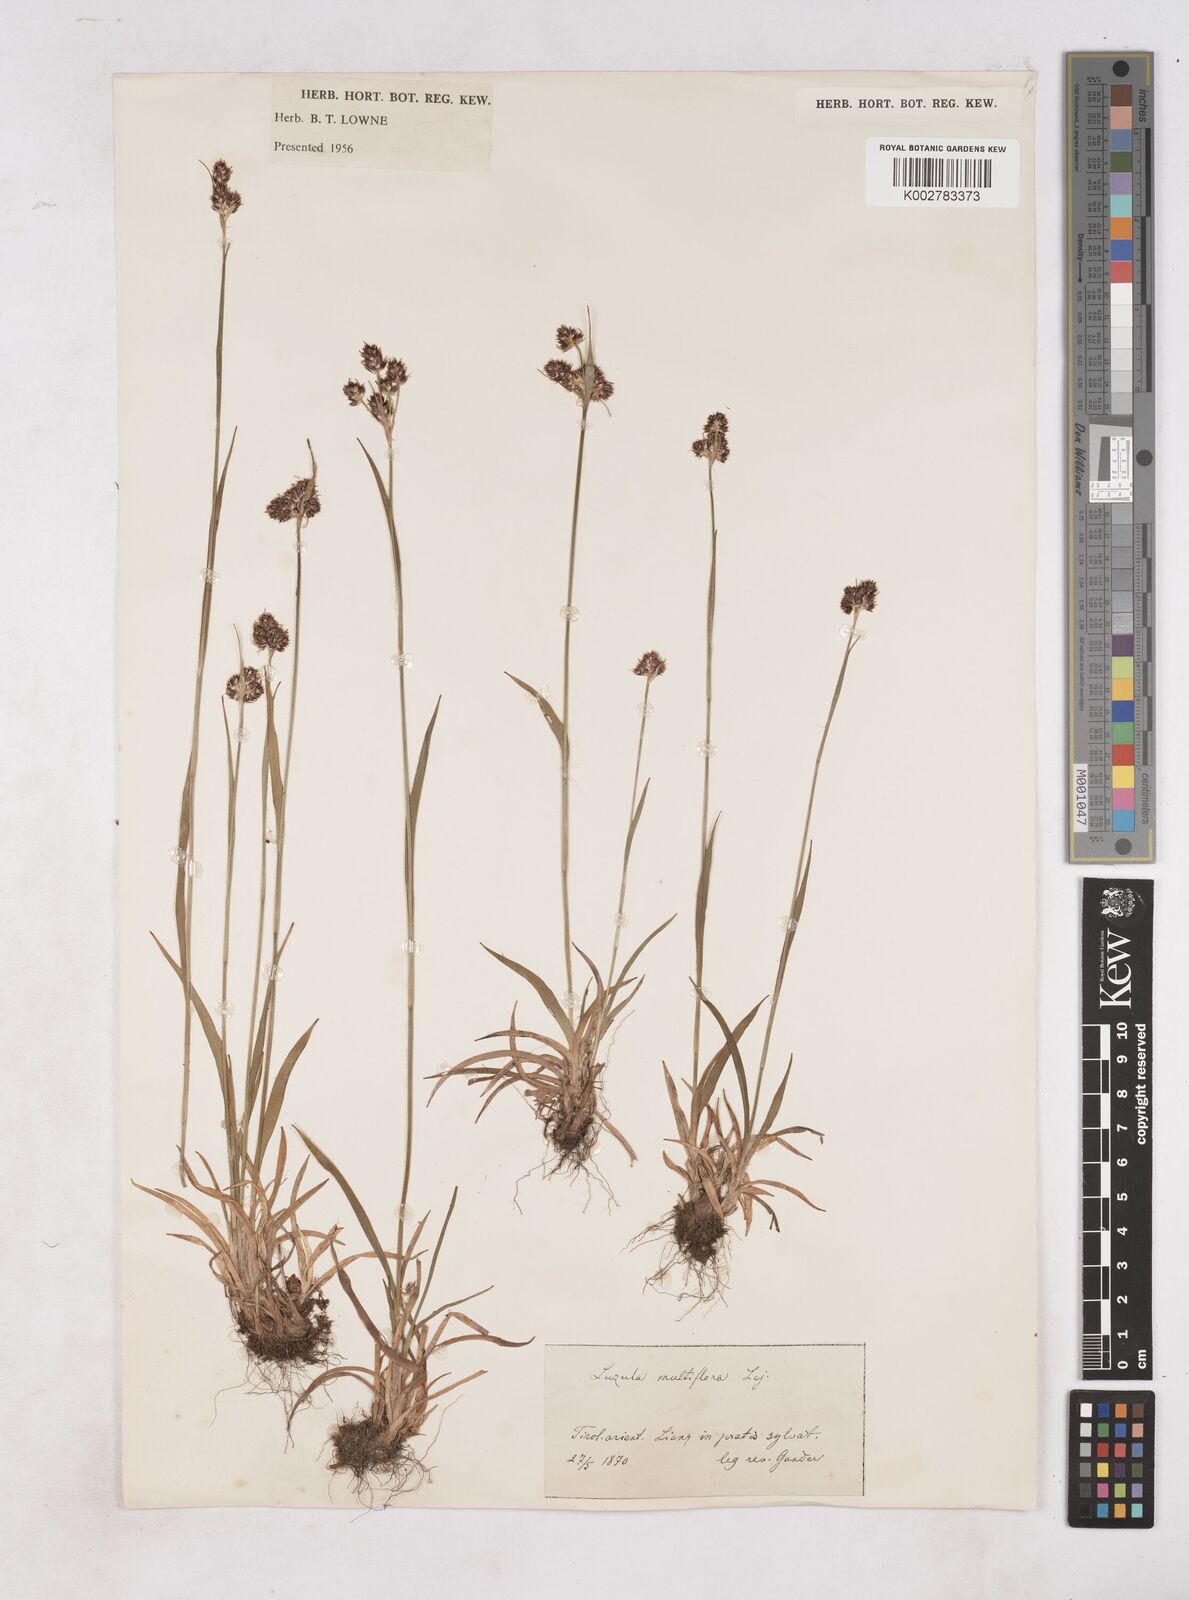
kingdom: Plantae
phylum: Tracheophyta
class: Liliopsida
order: Poales
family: Juncaceae
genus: Luzula
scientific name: Luzula multiflora
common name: Heath wood-rush
